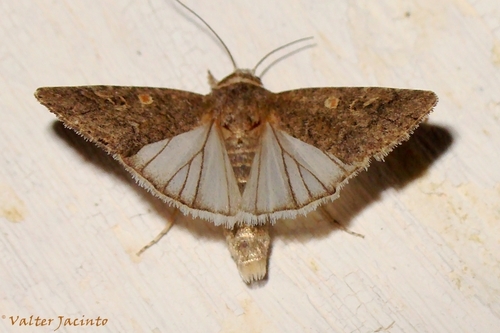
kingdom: Animalia
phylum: Arthropoda
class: Insecta
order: Lepidoptera
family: Noctuidae
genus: Spodoptera
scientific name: Spodoptera exigua
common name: Beet armyworm
